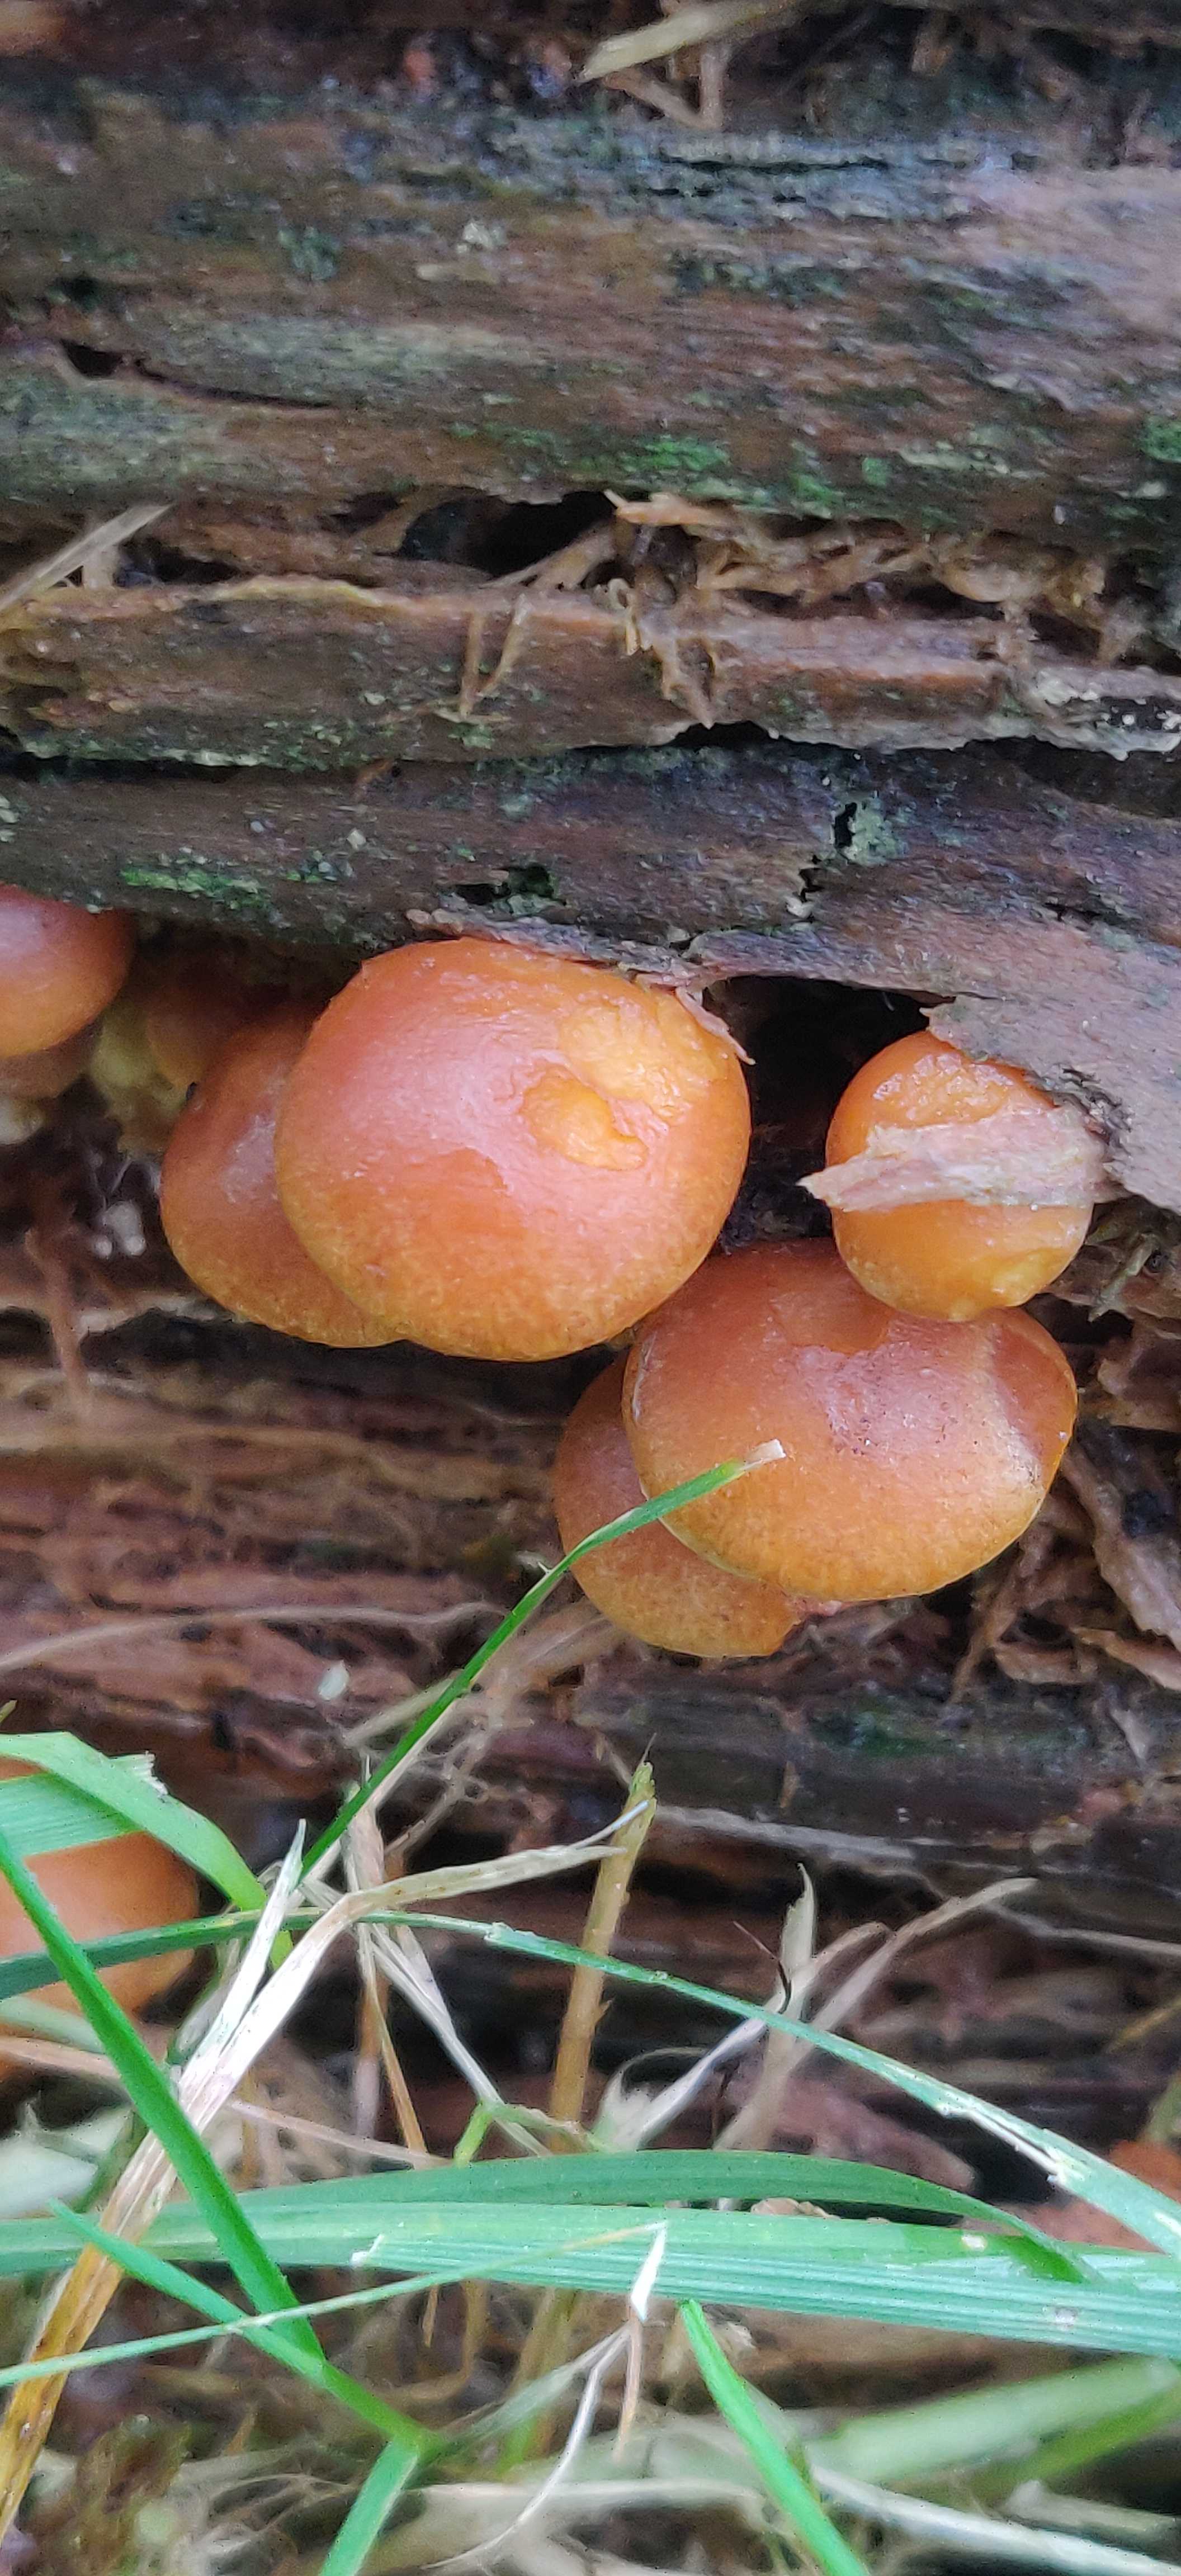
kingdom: Fungi
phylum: Basidiomycota
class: Agaricomycetes
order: Agaricales
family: Hymenogastraceae
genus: Gymnopilus
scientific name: Gymnopilus penetrans
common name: plettet flammehat
